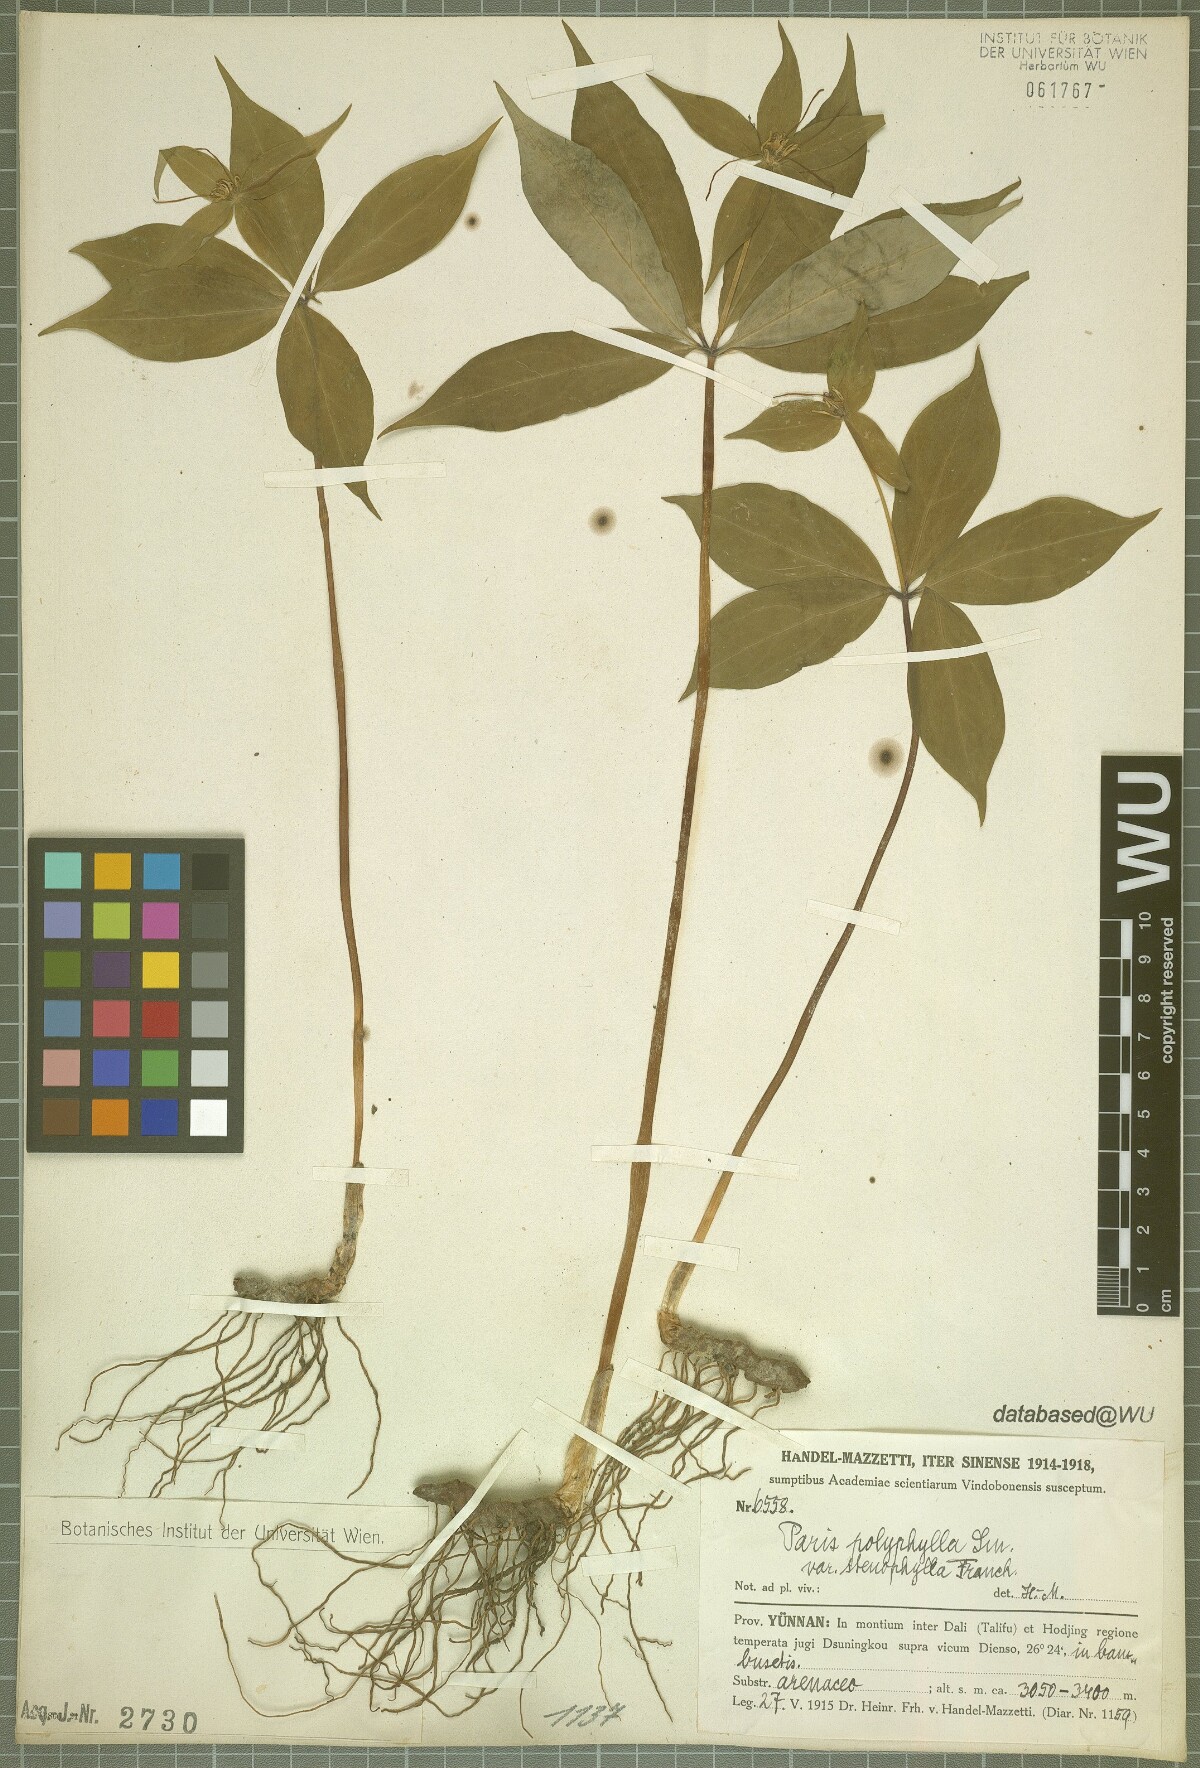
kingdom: Plantae
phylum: Tracheophyta
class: Liliopsida
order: Liliales
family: Melanthiaceae
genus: Paris
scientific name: Paris lancifolia
